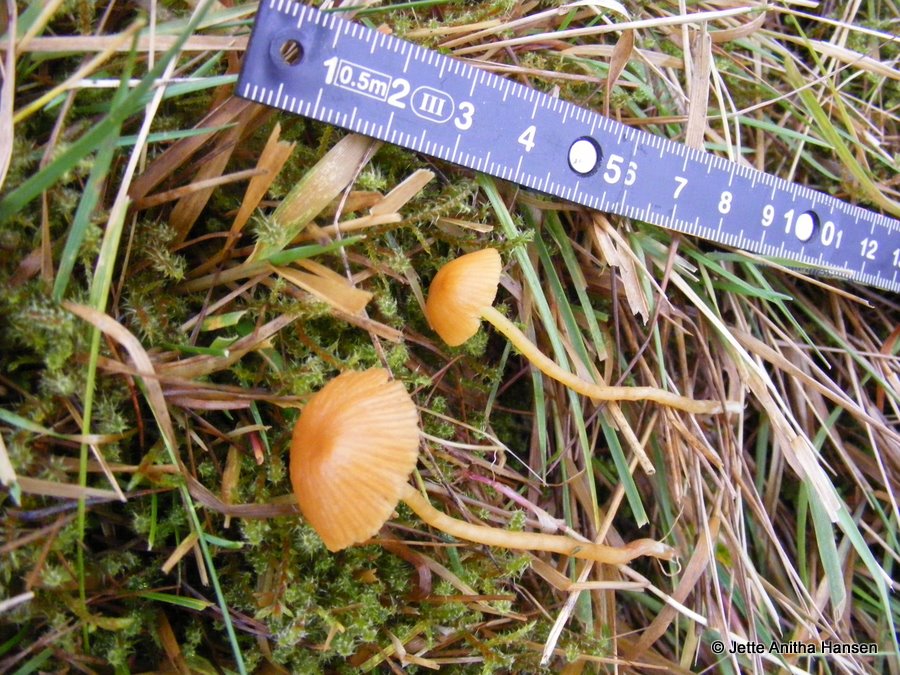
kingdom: Fungi
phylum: Basidiomycota
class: Agaricomycetes
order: Agaricales
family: Hymenogastraceae
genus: Galerina
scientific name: Galerina pumila
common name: honninggul hjelmhat
